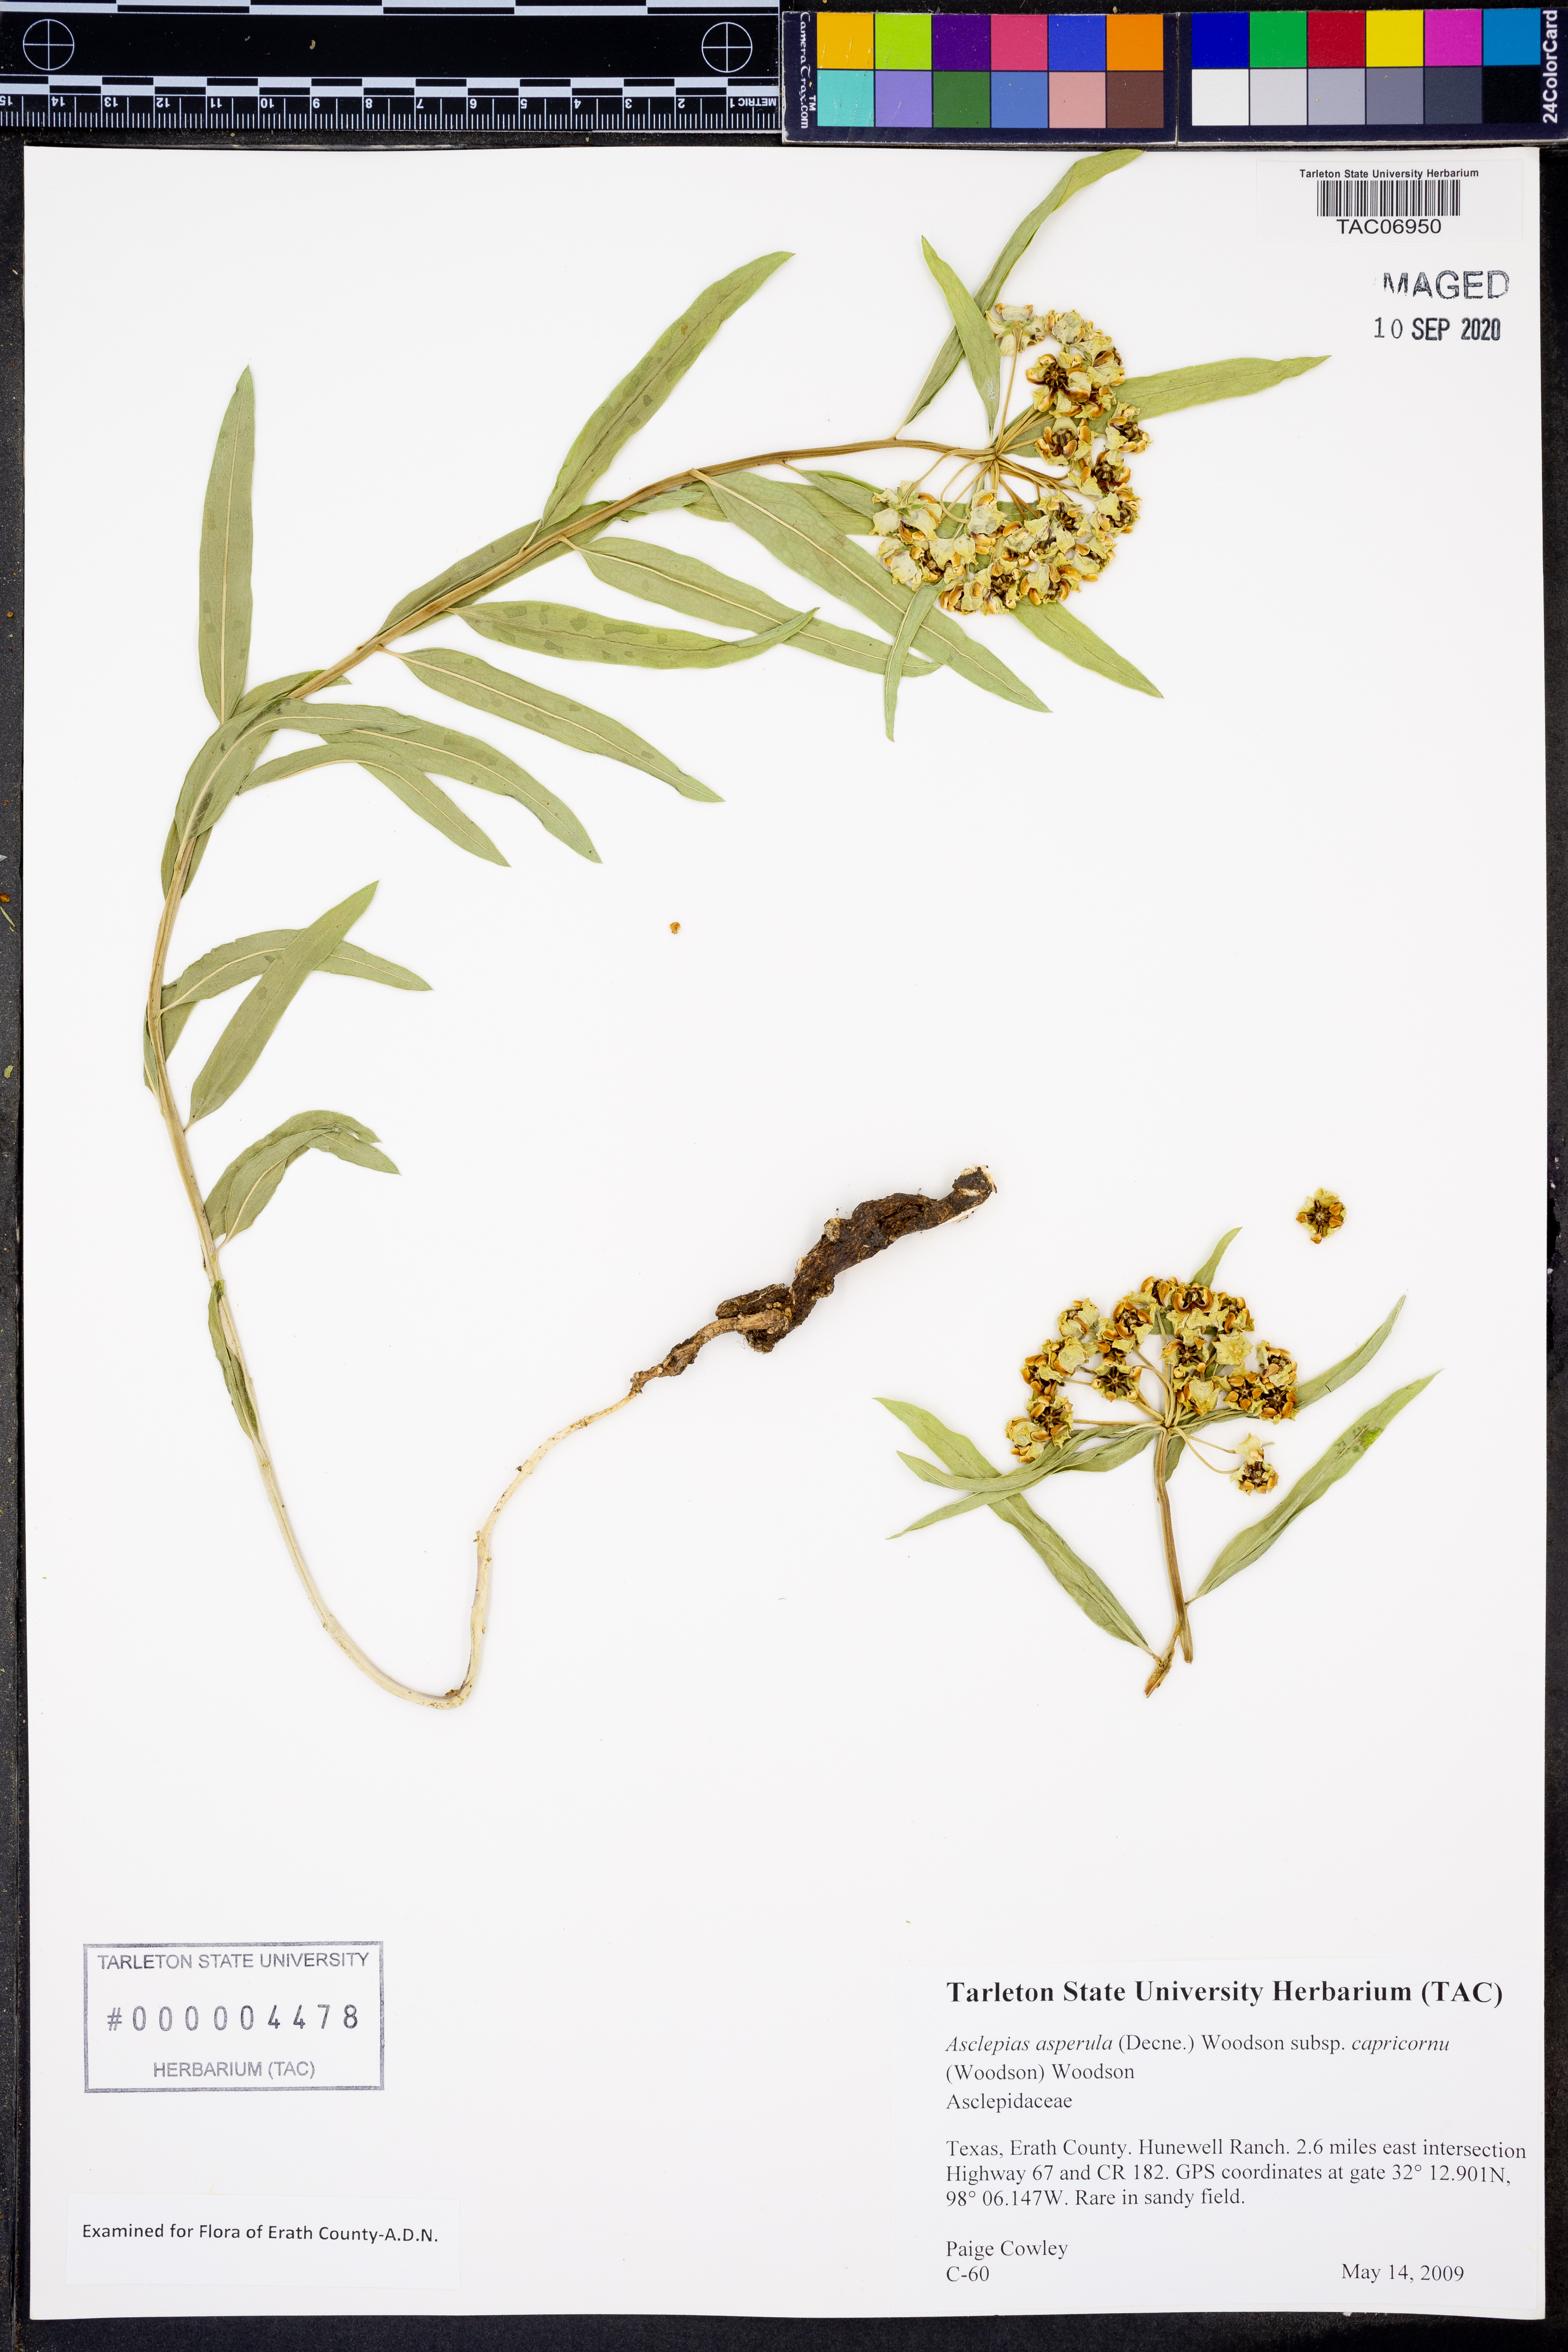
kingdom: Plantae
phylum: Tracheophyta
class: Magnoliopsida
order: Gentianales
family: Apocynaceae
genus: Asclepias
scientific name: Asclepias asperula
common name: Antelope horns
